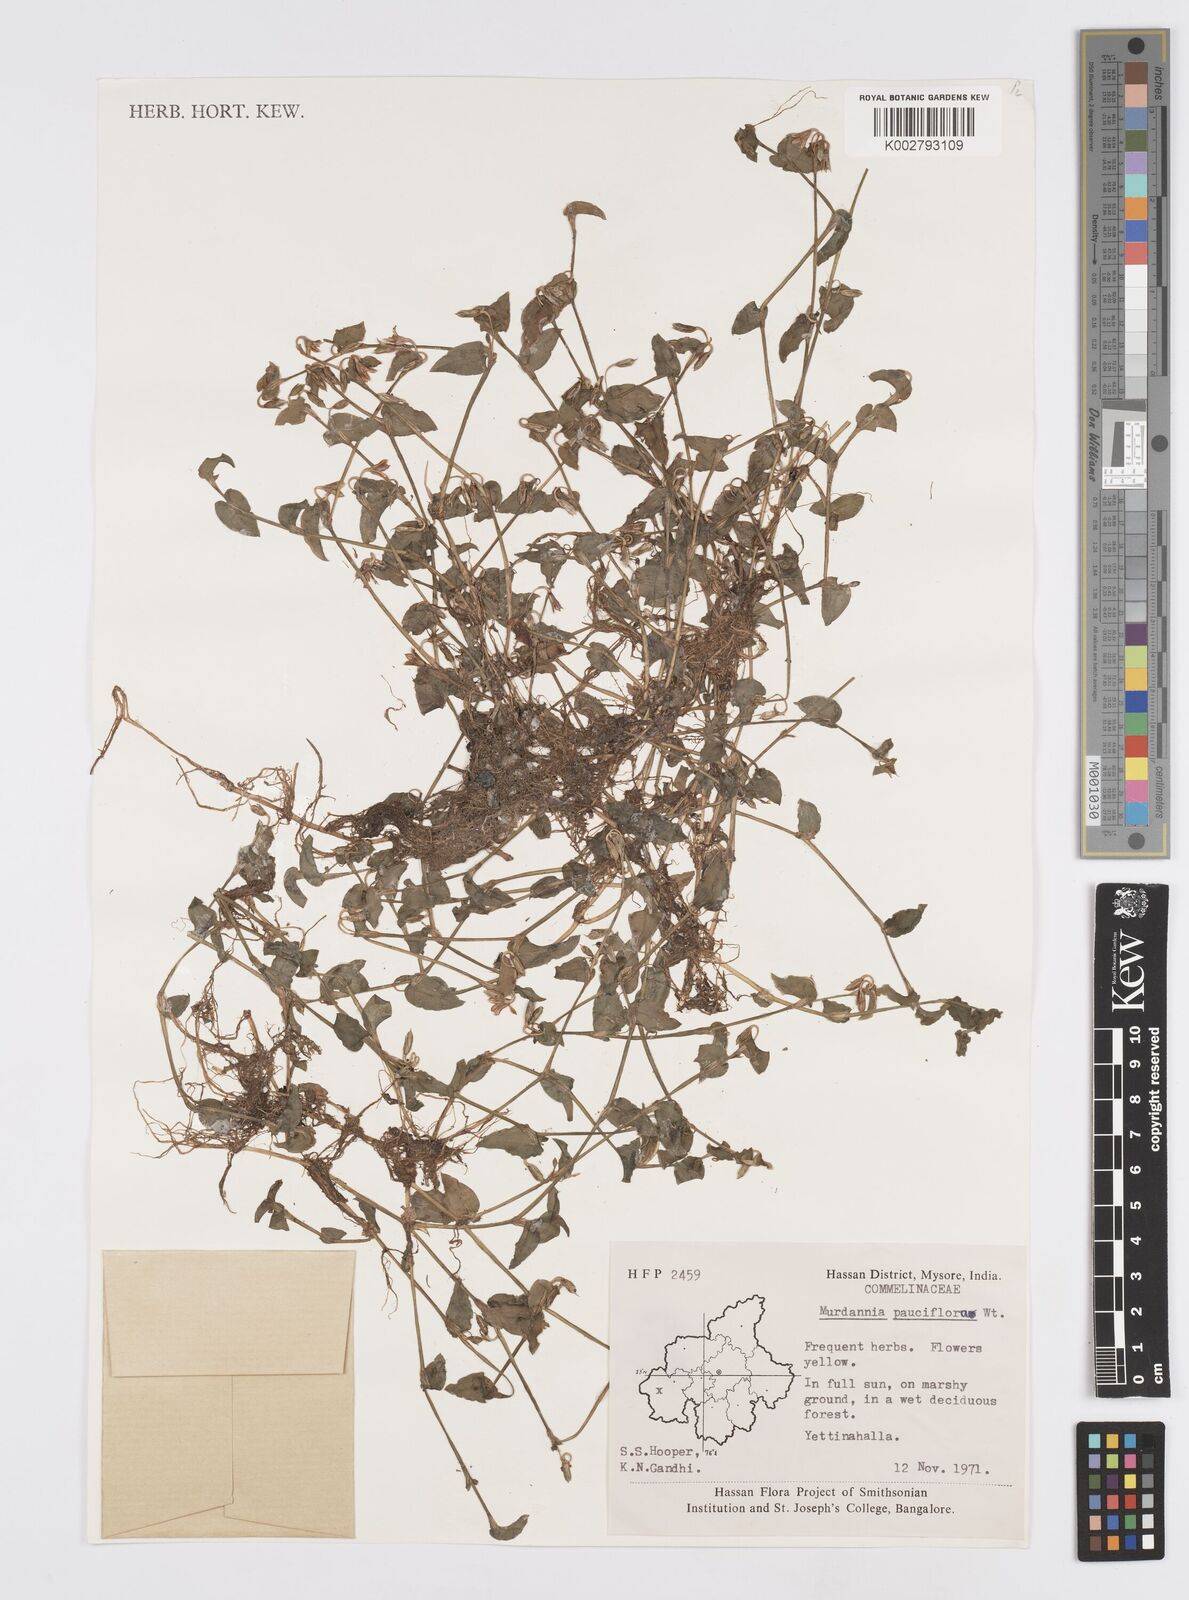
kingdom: Plantae
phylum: Tracheophyta
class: Liliopsida
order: Commelinales
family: Commelinaceae
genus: Murdannia
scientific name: Murdannia pauciflora
